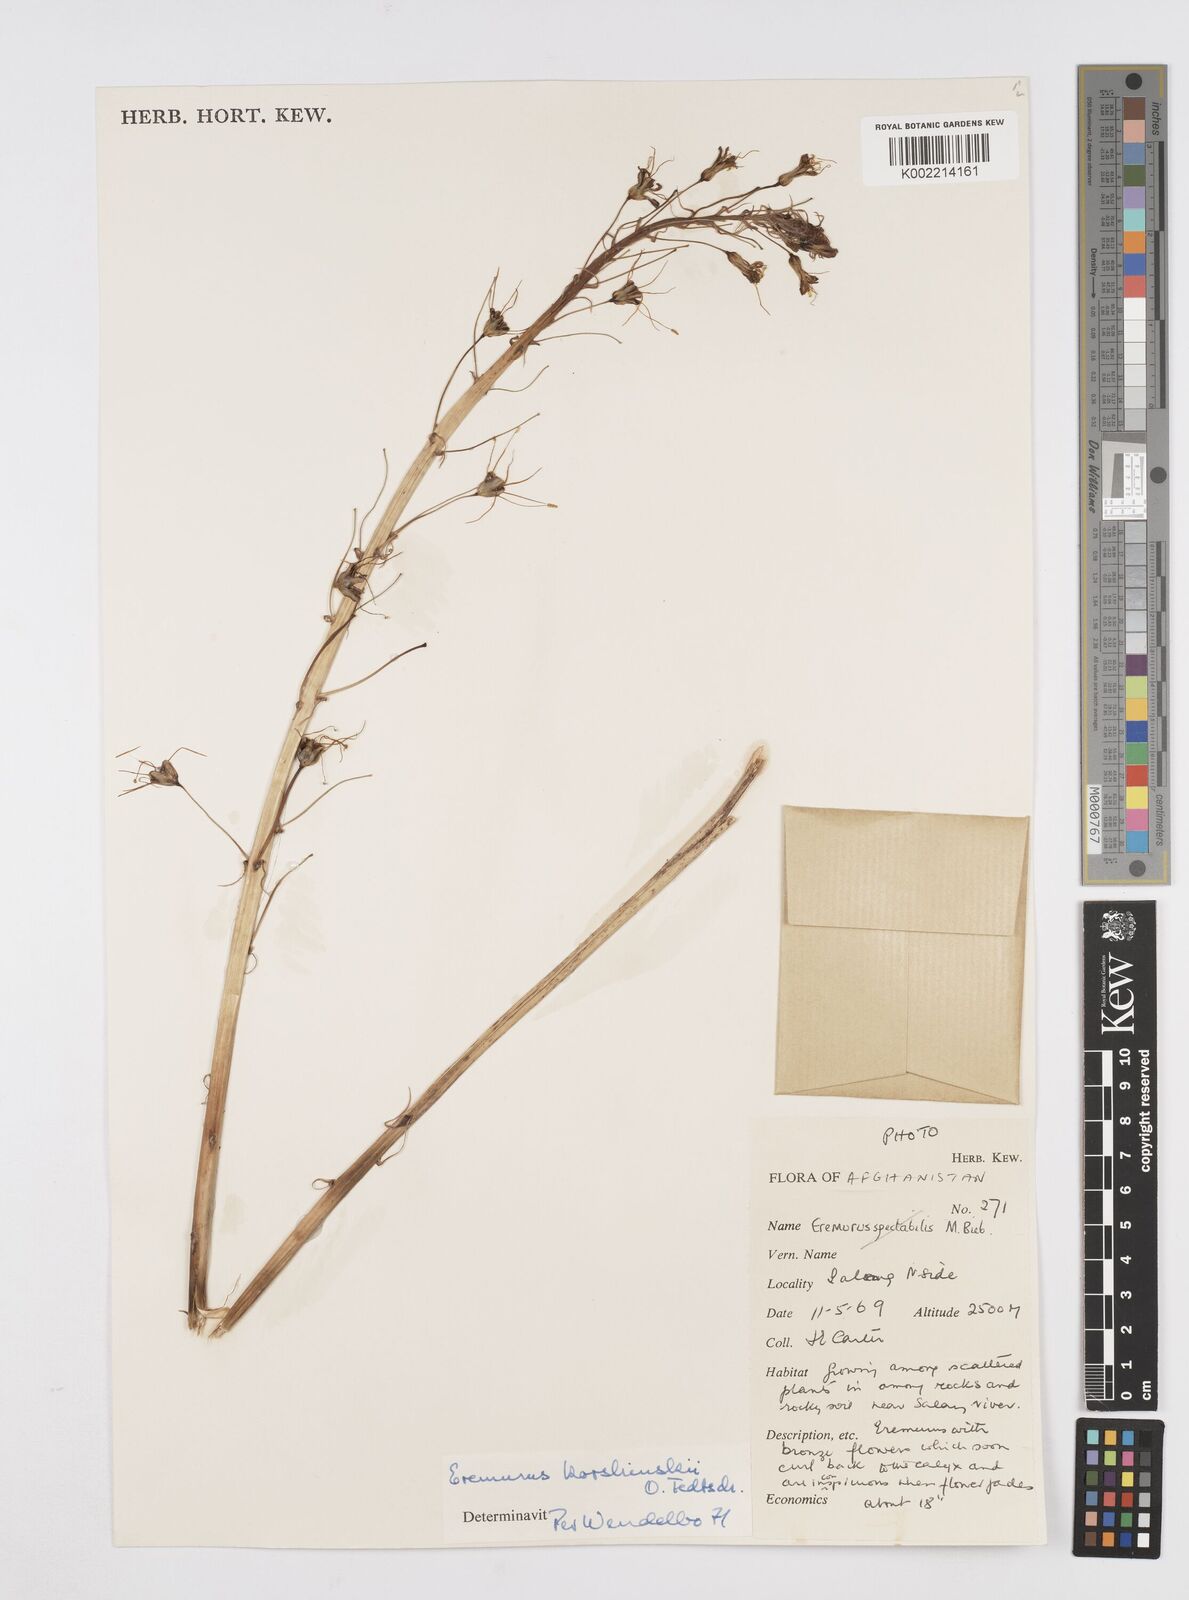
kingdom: Plantae
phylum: Tracheophyta
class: Liliopsida
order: Asparagales
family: Asphodelaceae
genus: Eremurus
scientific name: Eremurus korshinskyi
